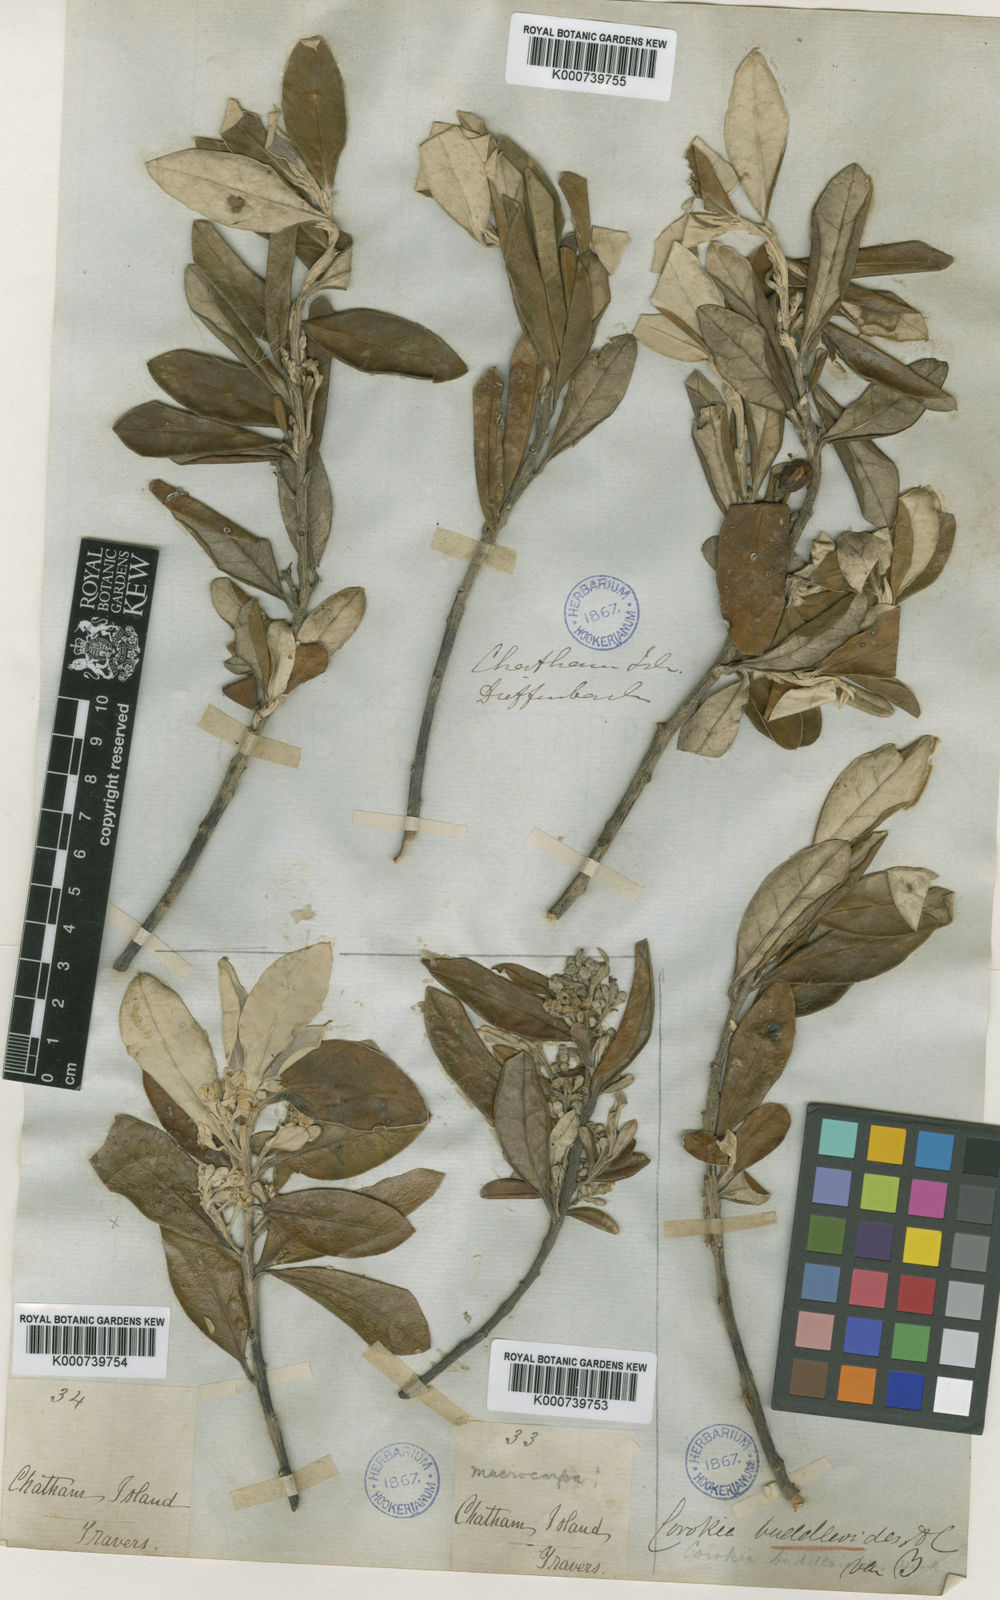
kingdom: Plantae
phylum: Tracheophyta
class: Magnoliopsida
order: Asterales
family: Argophyllaceae
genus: Corokia
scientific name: Corokia macrocarpa
